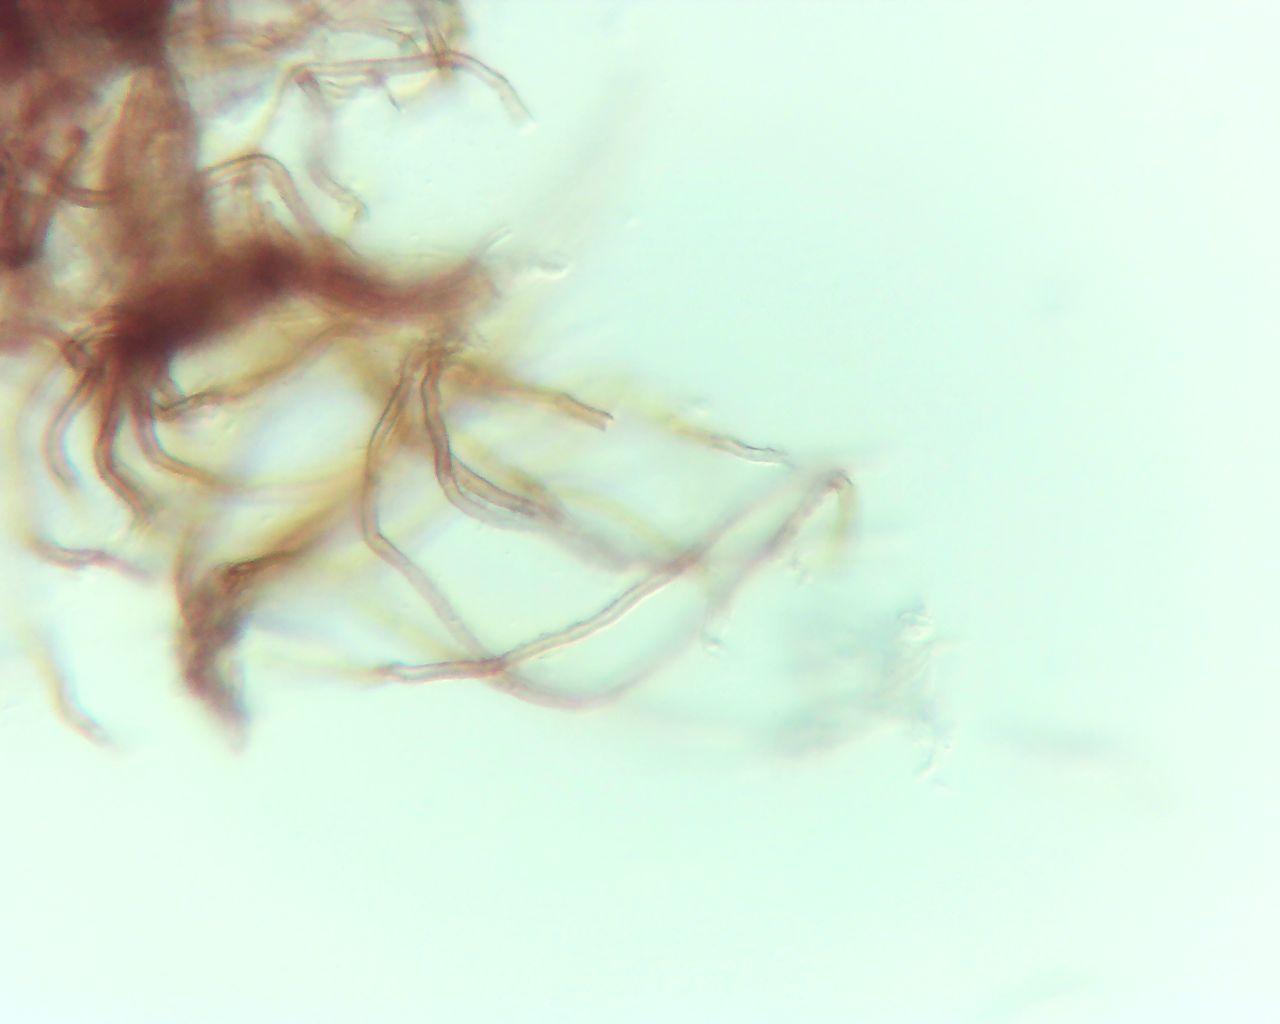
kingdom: Fungi
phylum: Basidiomycota
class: Agaricomycetes
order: Agaricales
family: Niaceae
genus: Merismodes
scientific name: Merismodes
